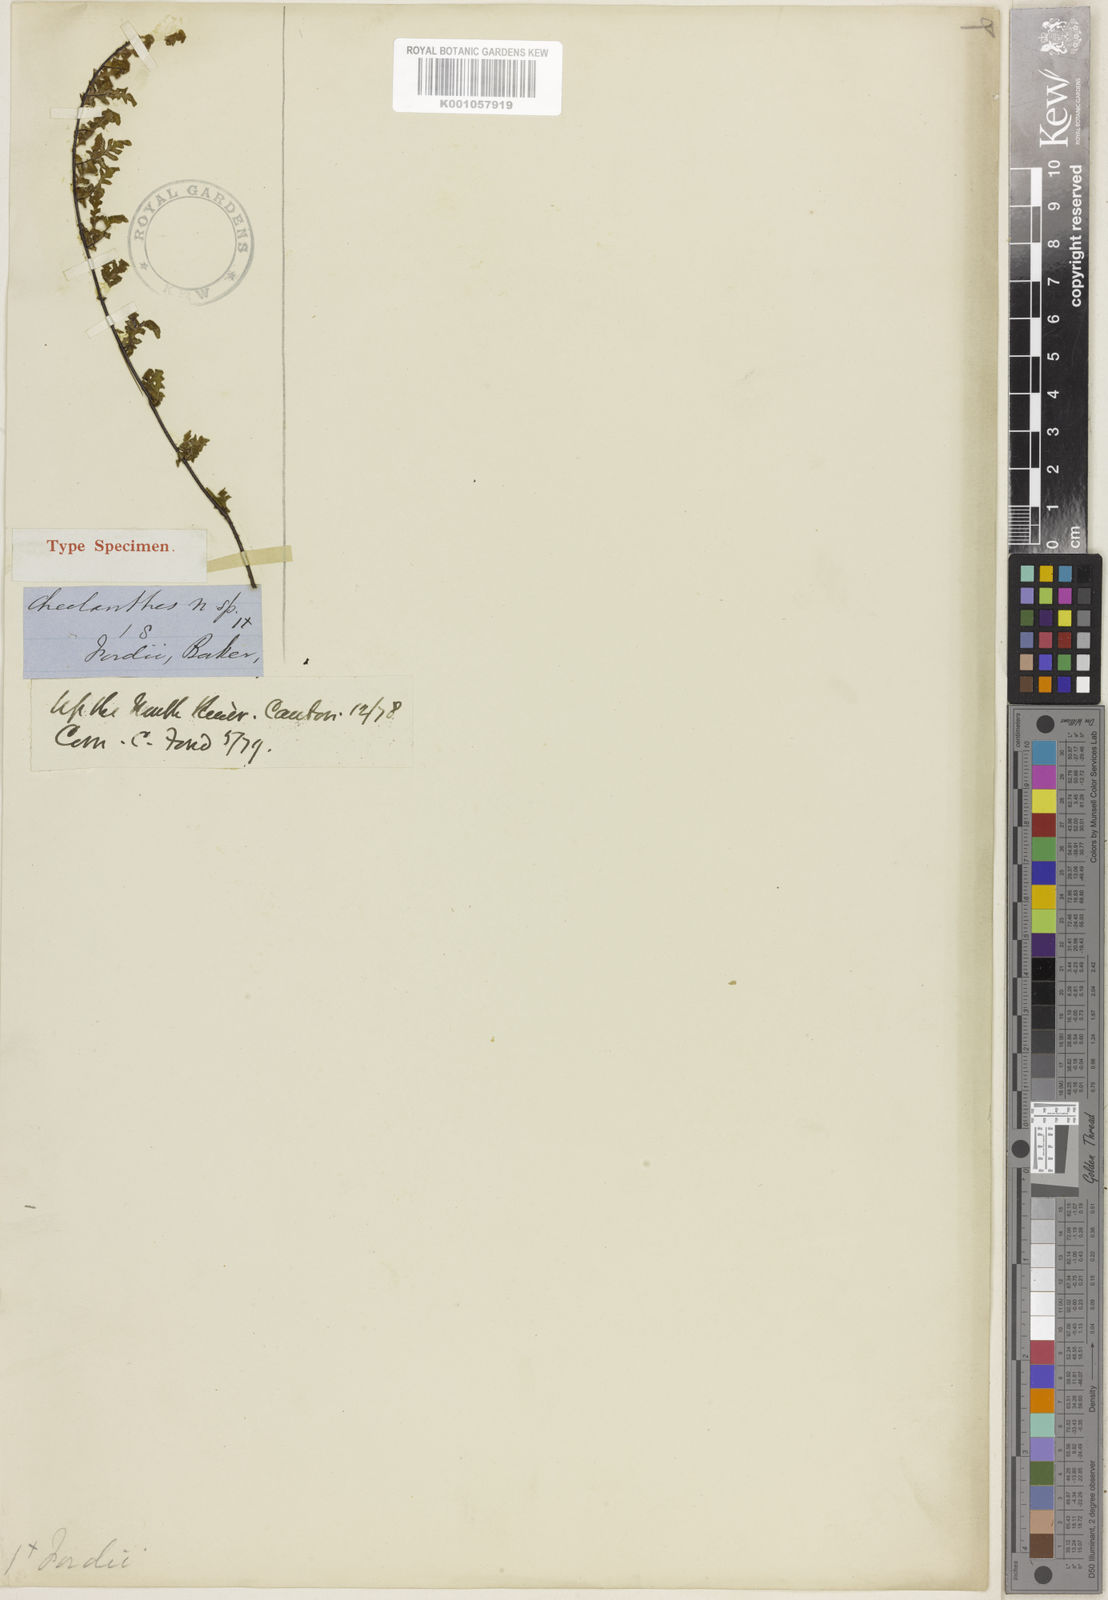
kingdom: Plantae
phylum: Tracheophyta
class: Polypodiopsida
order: Polypodiales
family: Pteridaceae
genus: Oeosporangium
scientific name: Oeosporangium chusanum
